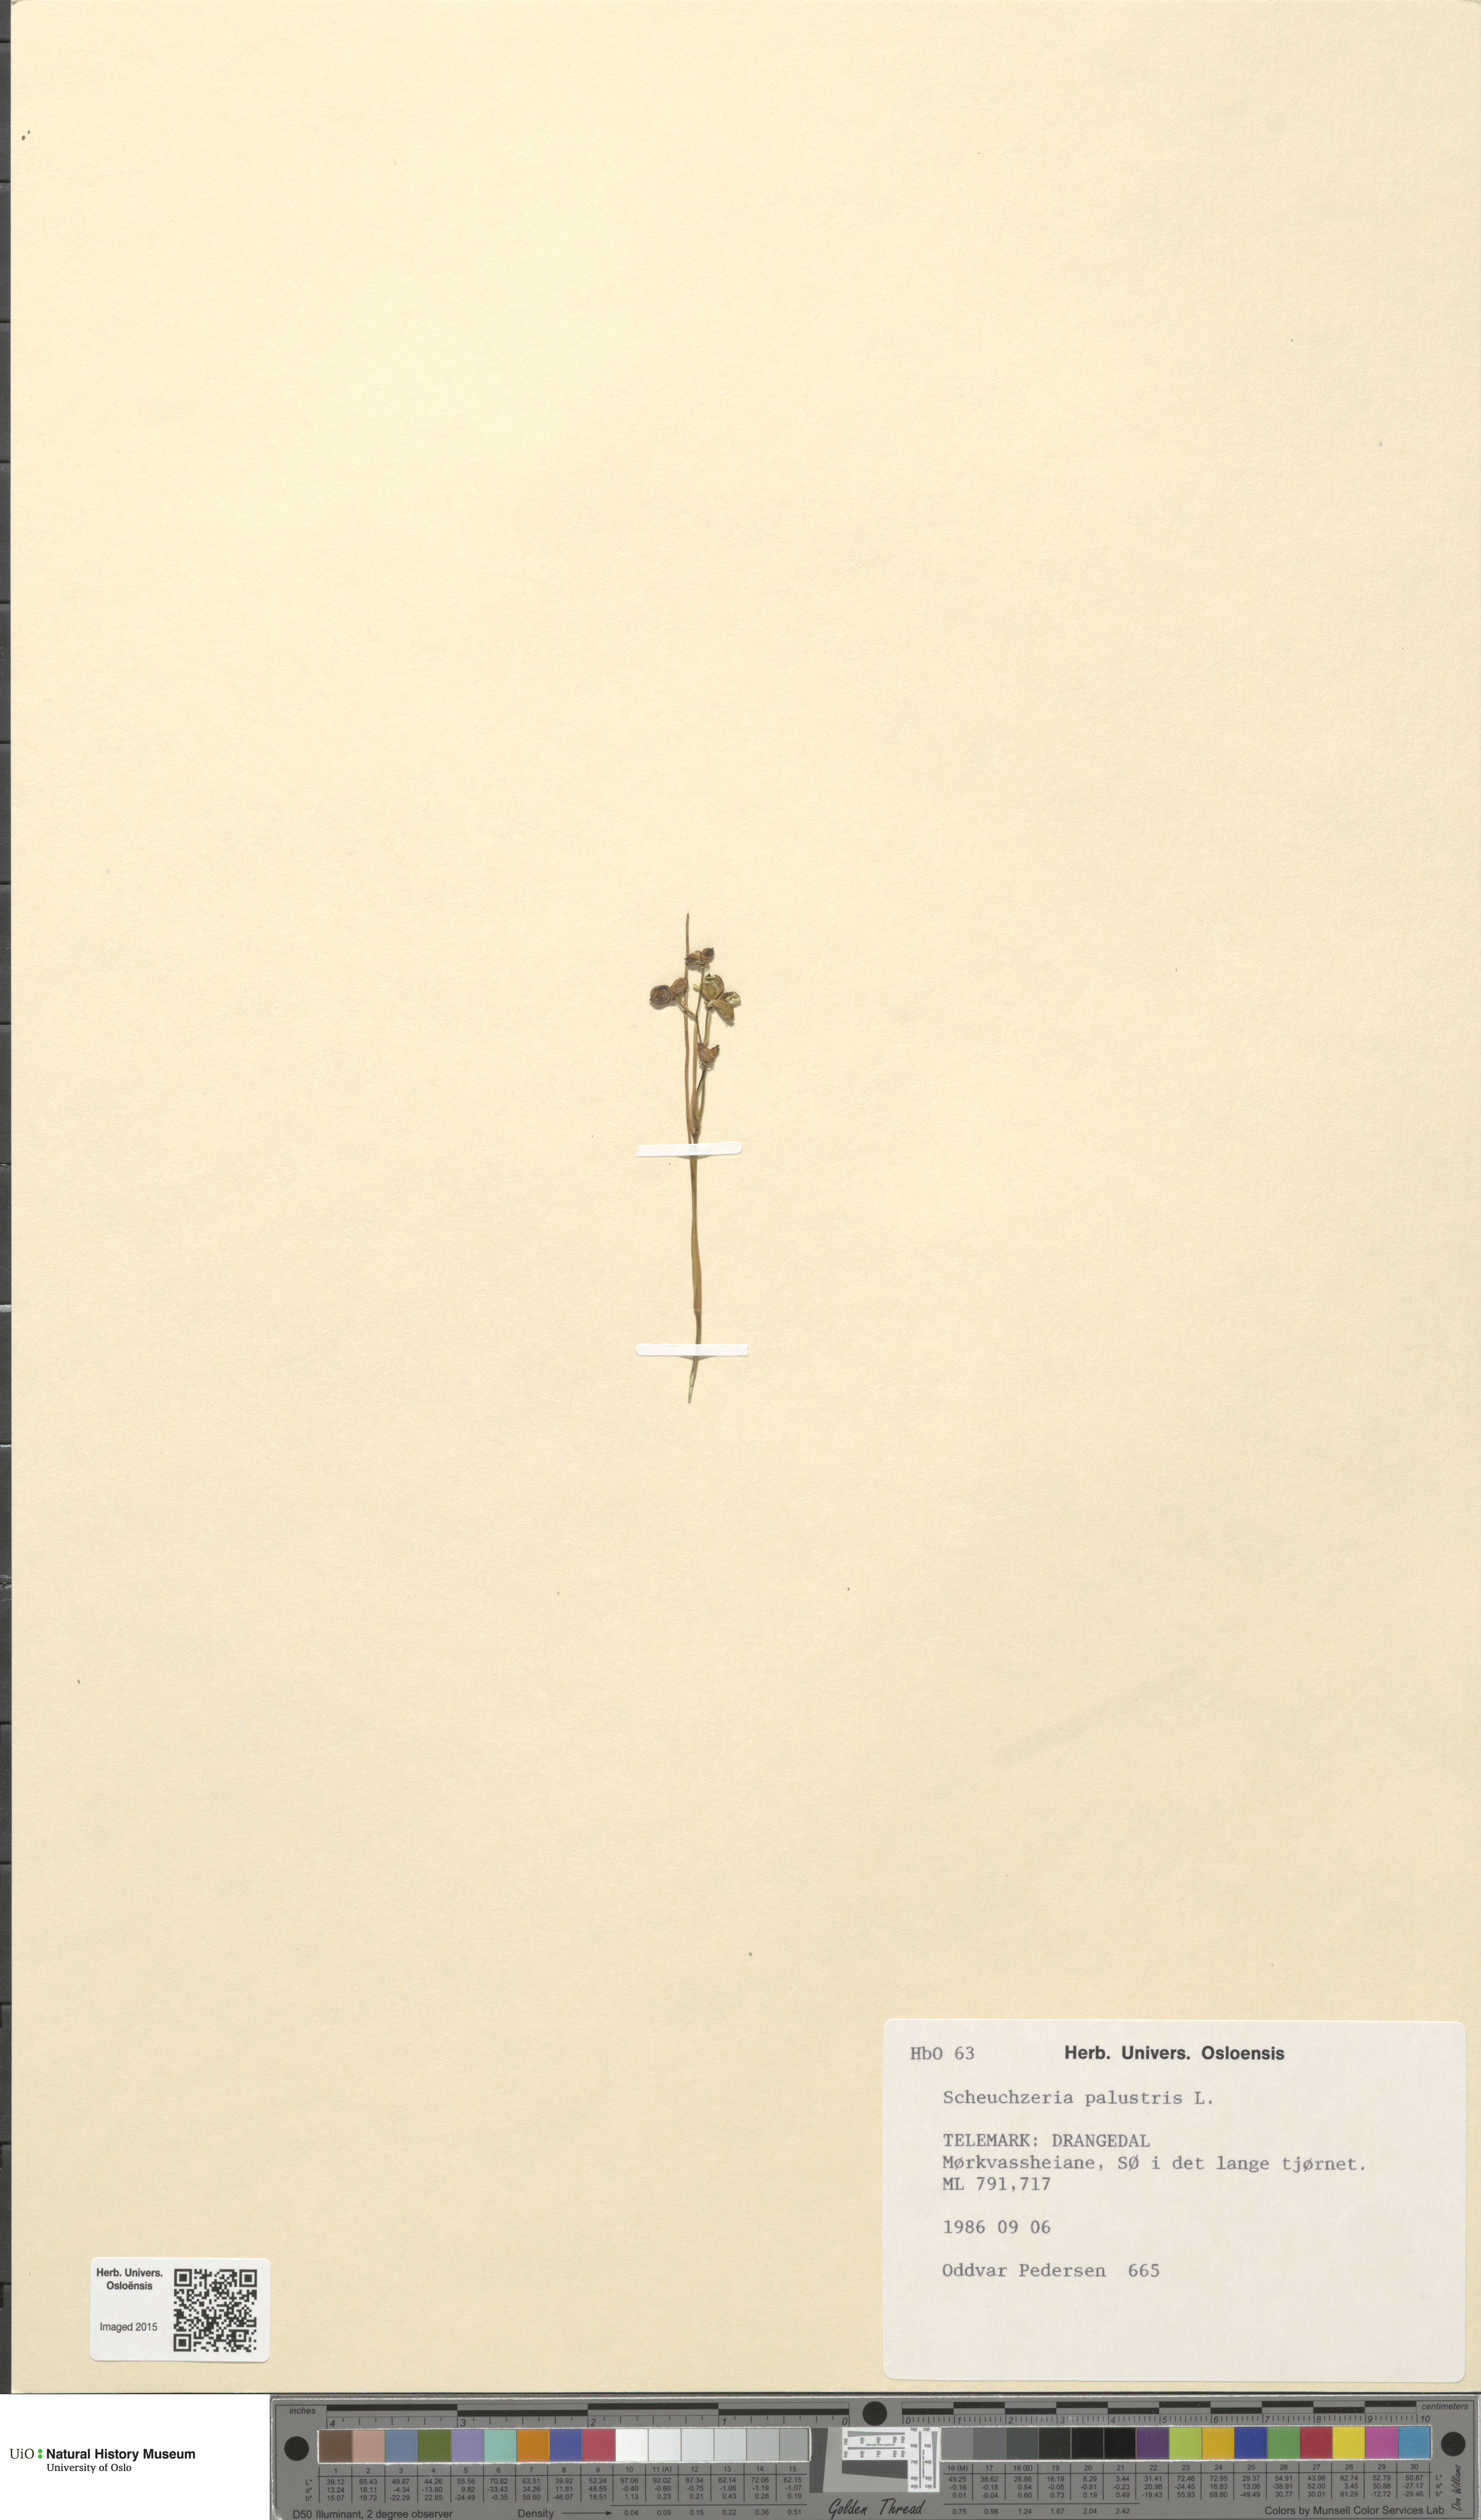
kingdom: Plantae
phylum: Tracheophyta
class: Liliopsida
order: Alismatales
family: Scheuchzeriaceae
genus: Scheuchzeria
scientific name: Scheuchzeria palustris
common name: Rannoch-rush
